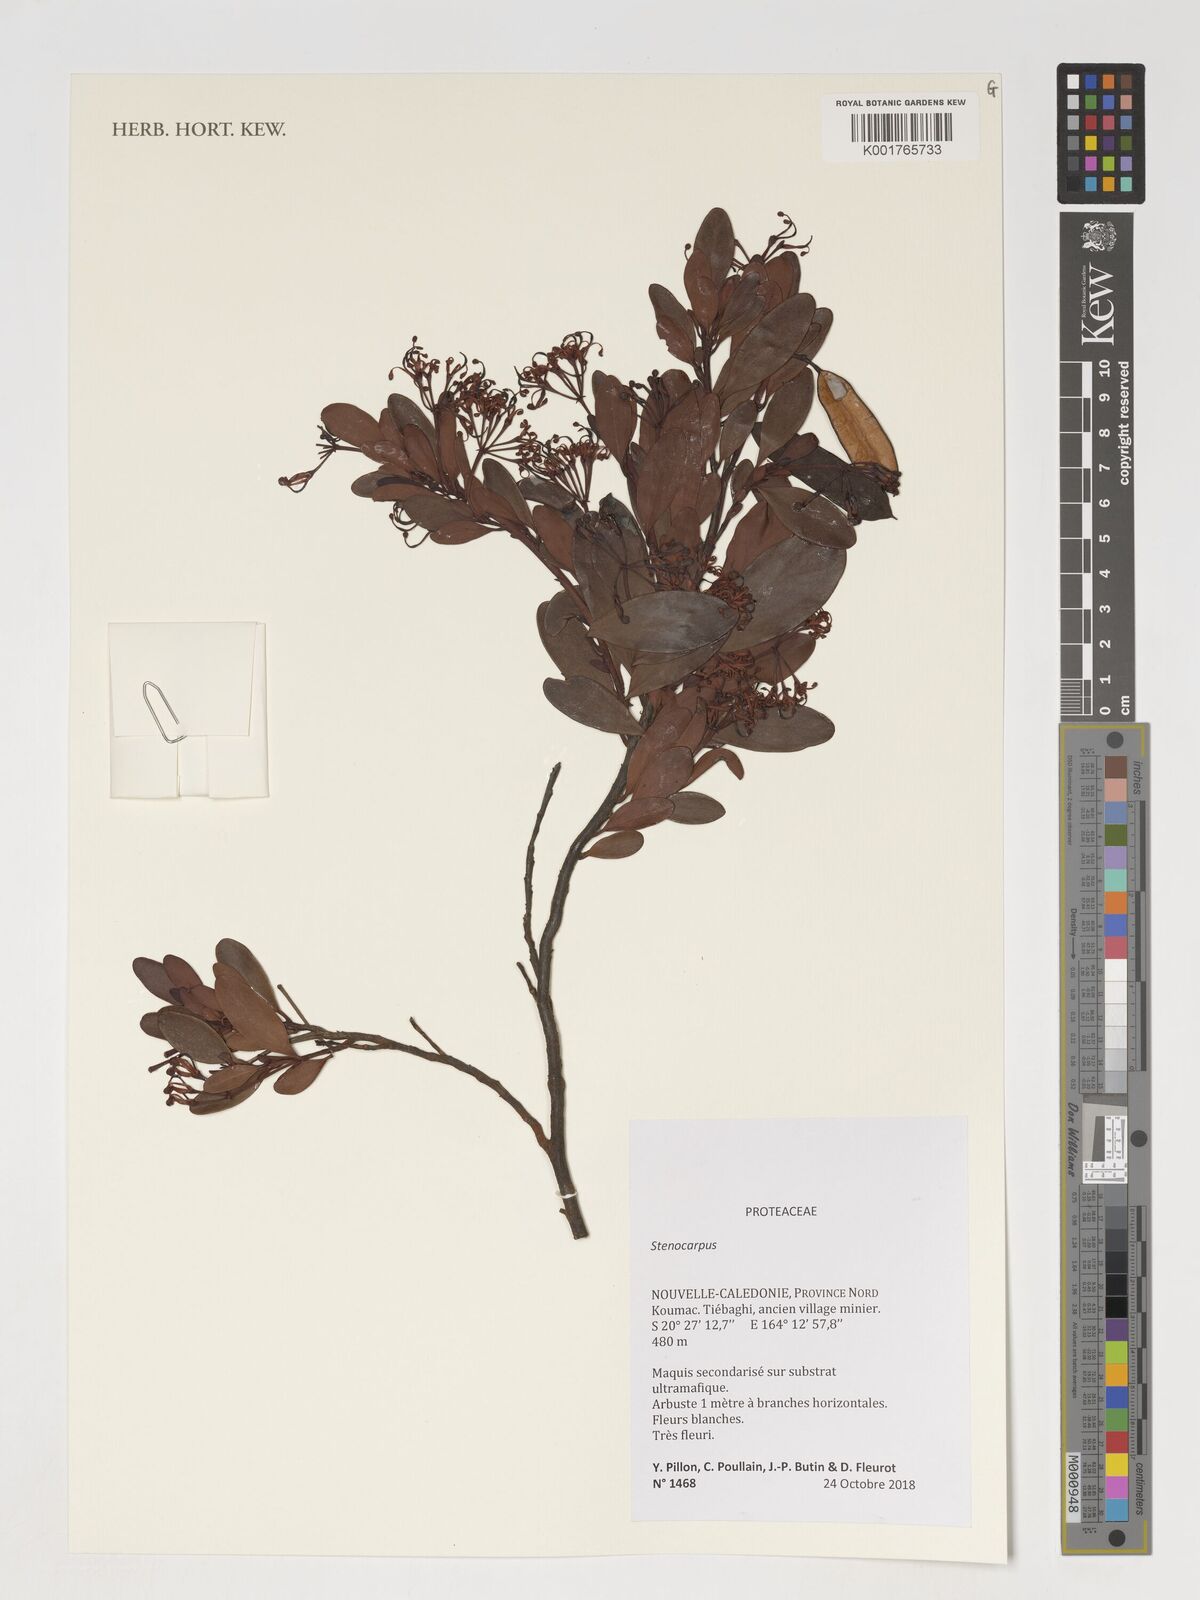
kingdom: Plantae
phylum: Tracheophyta
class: Magnoliopsida
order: Proteales
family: Proteaceae
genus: Stenocarpus
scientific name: Stenocarpus
